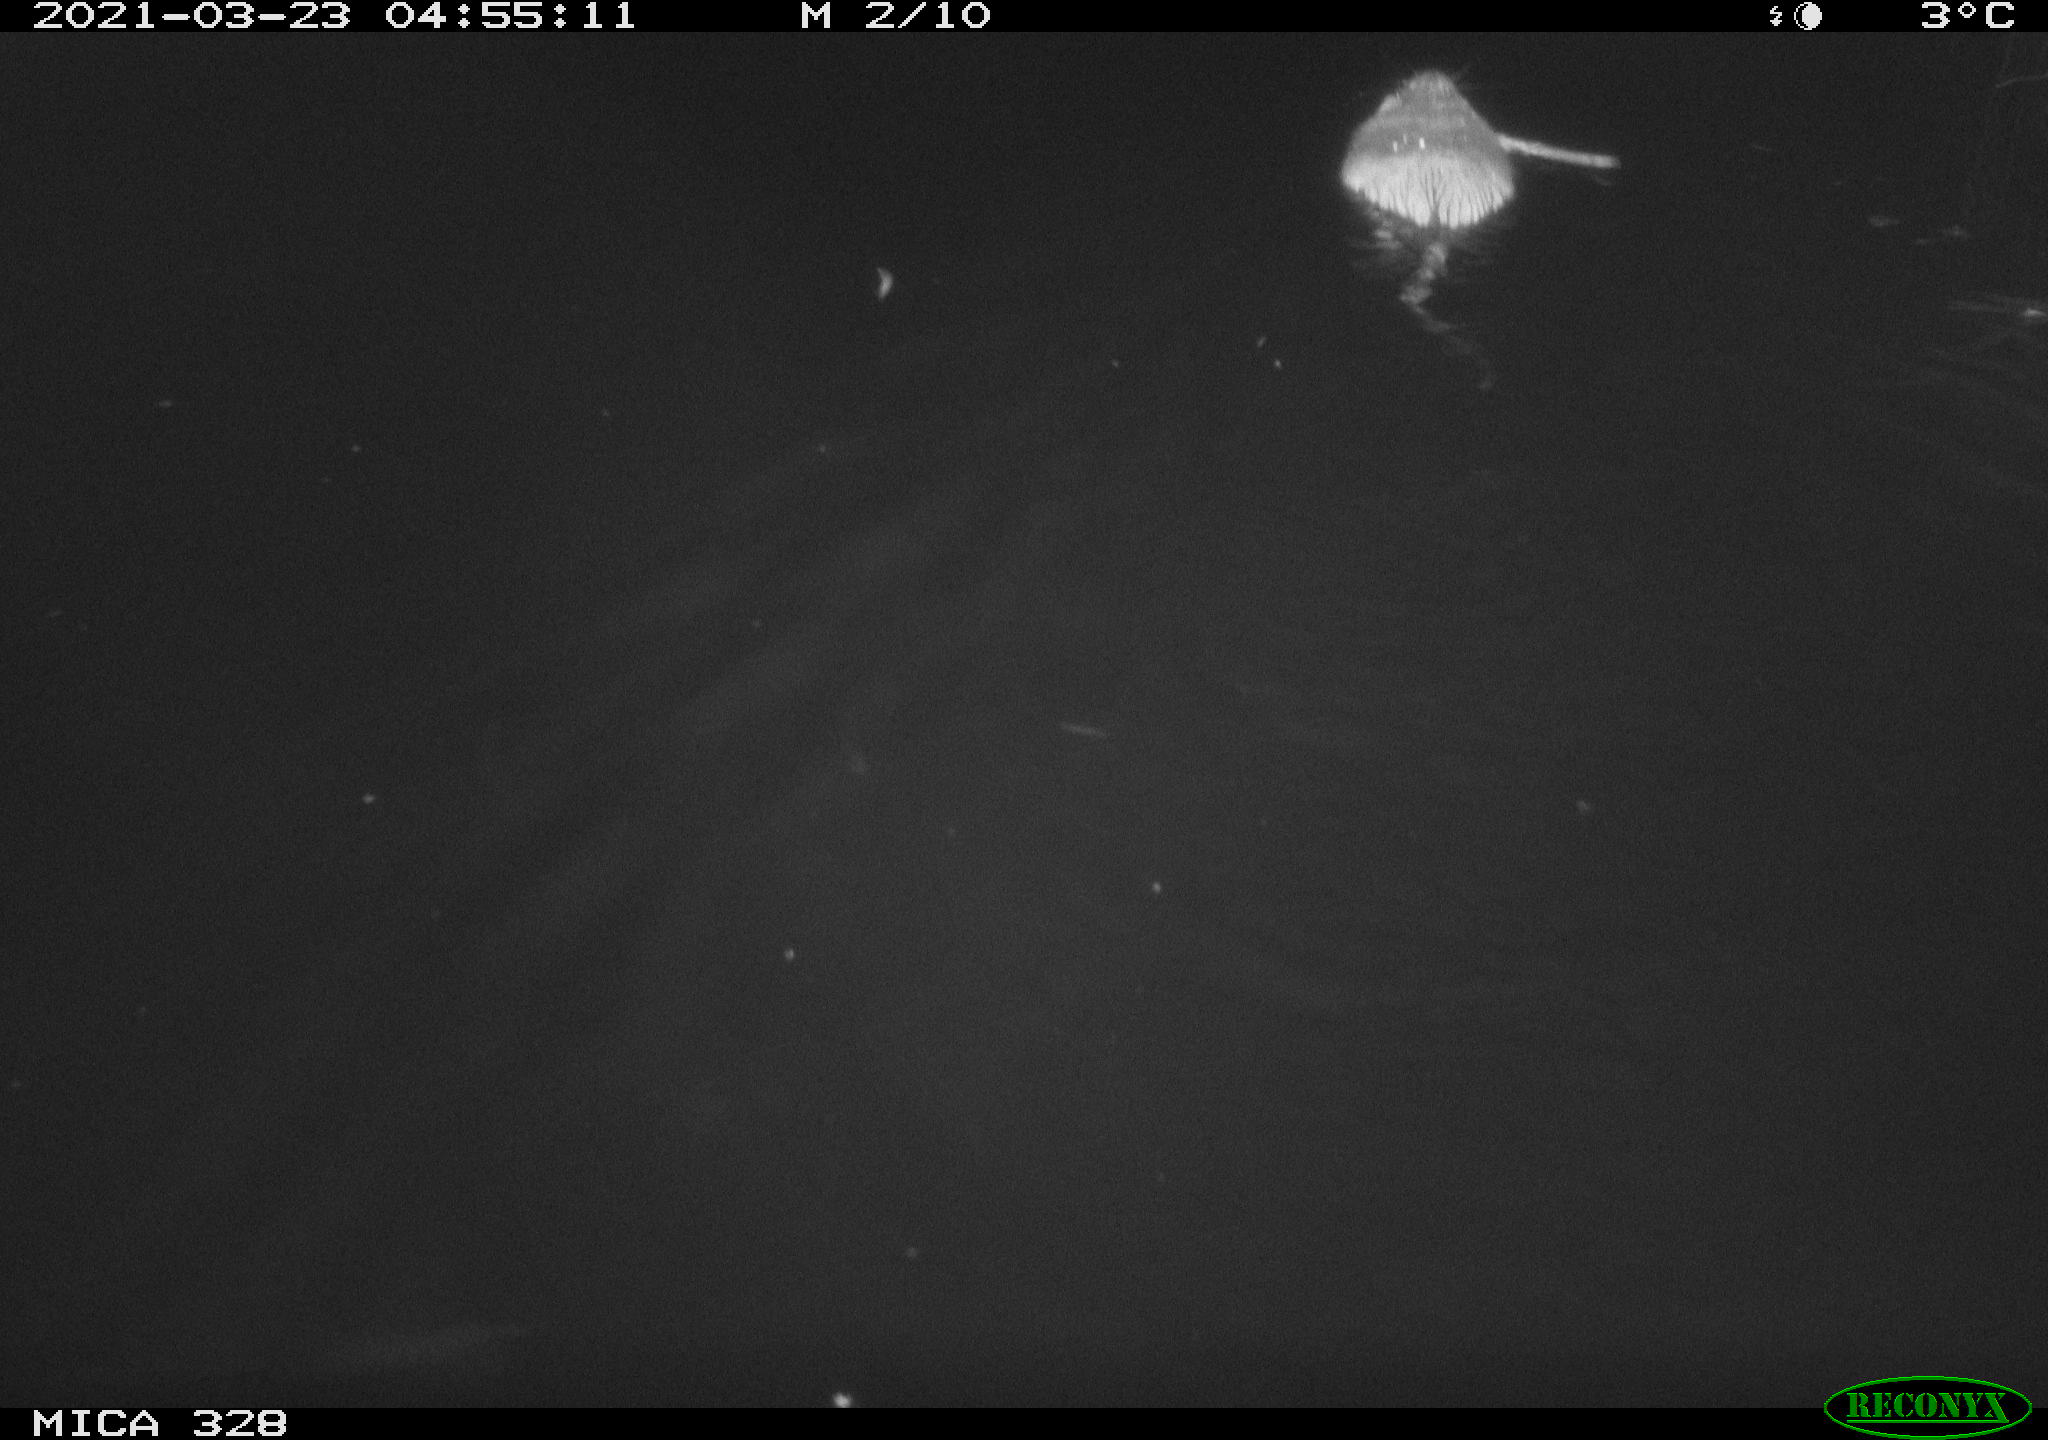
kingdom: Animalia
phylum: Chordata
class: Mammalia
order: Rodentia
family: Cricetidae
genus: Ondatra
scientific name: Ondatra zibethicus
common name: Muskrat
